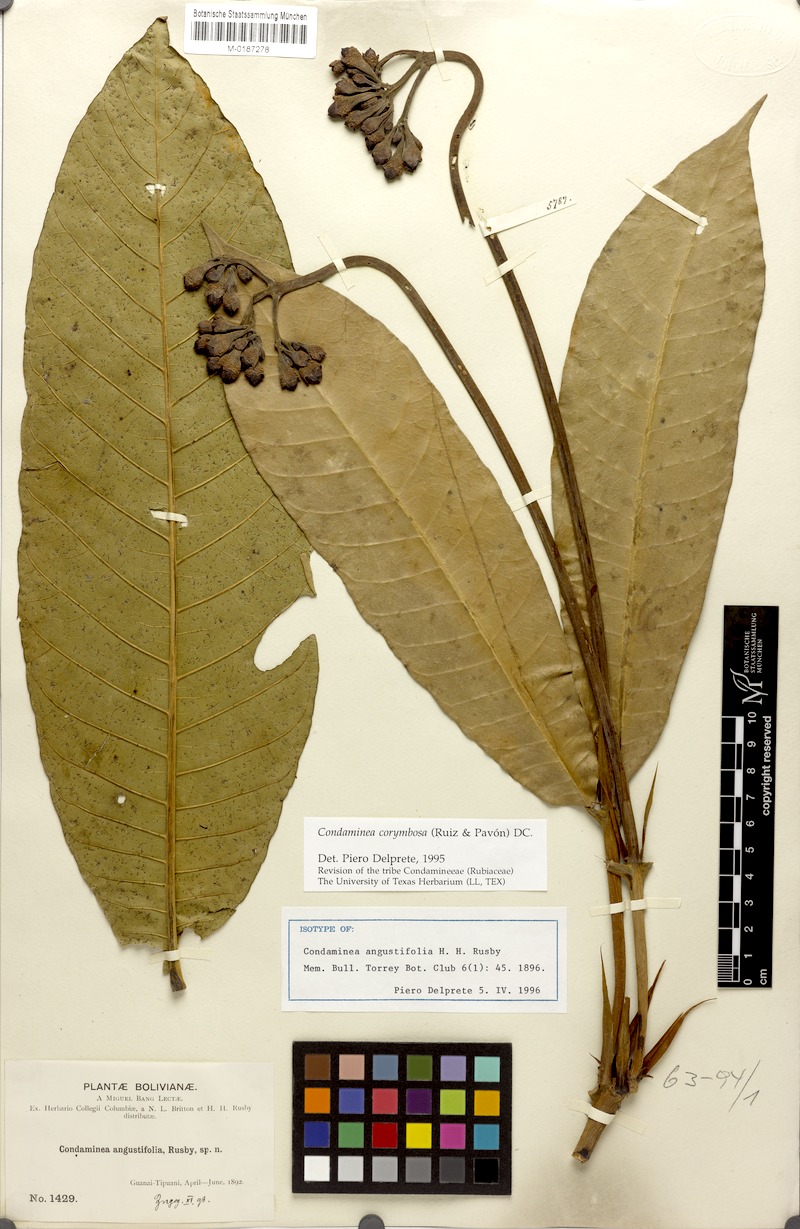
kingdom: Plantae
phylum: Tracheophyta
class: Magnoliopsida
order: Gentianales
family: Rubiaceae
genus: Condaminea
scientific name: Condaminea corymbosa
